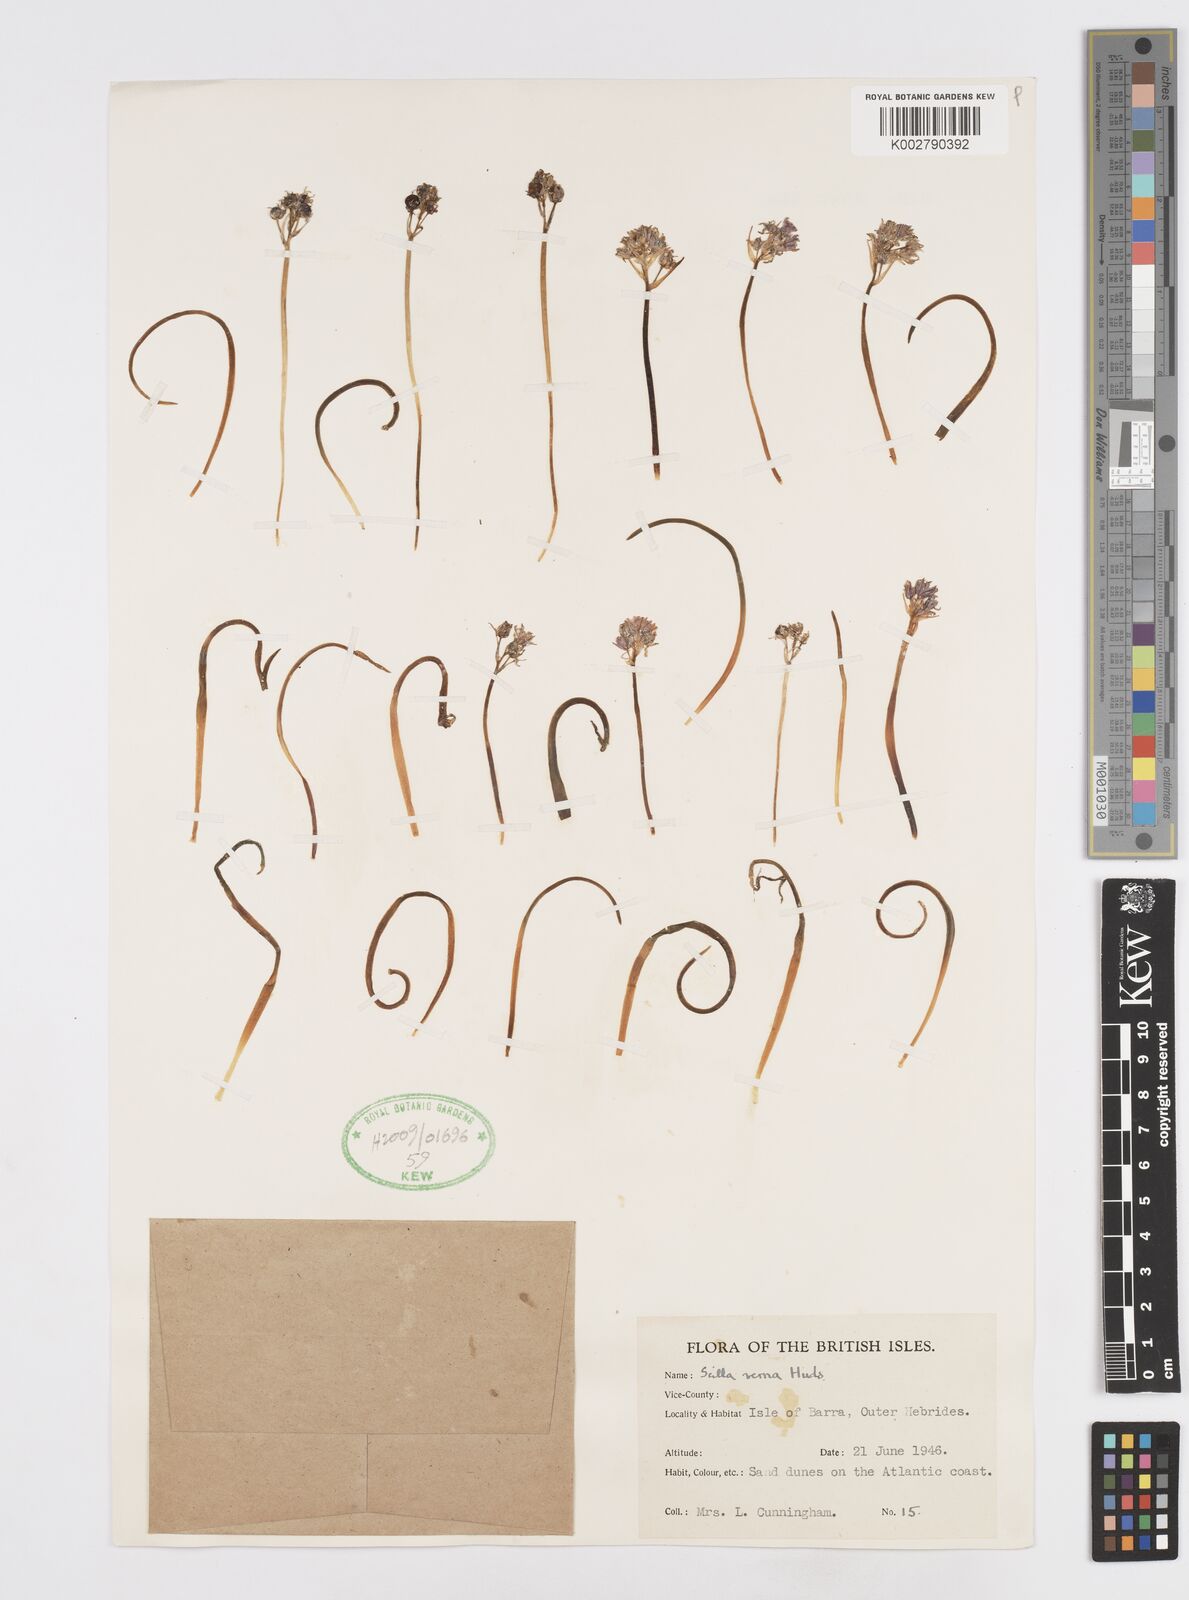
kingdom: Plantae
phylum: Tracheophyta
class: Liliopsida
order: Asparagales
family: Asparagaceae
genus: Scilla
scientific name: Scilla verna
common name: Spring squill
